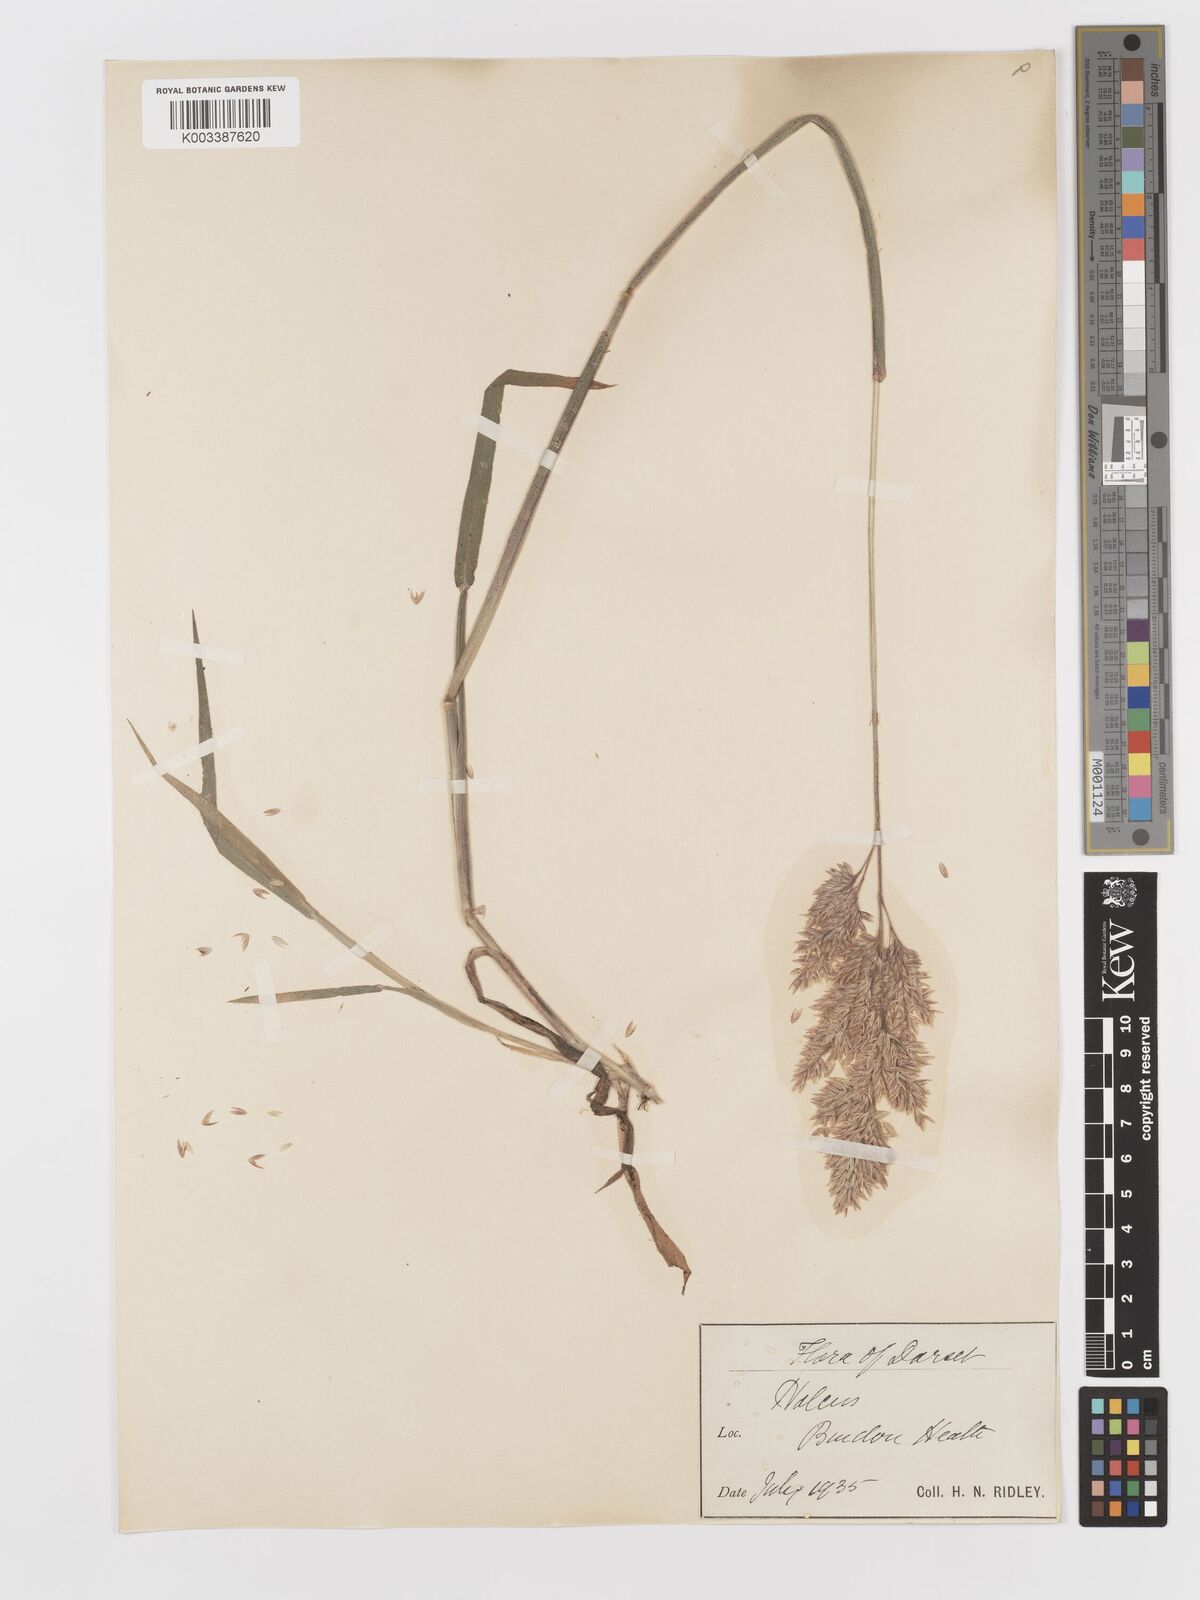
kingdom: Plantae
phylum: Tracheophyta
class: Liliopsida
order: Poales
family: Poaceae
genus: Holcus
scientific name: Holcus lanatus
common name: Yorkshire-fog
